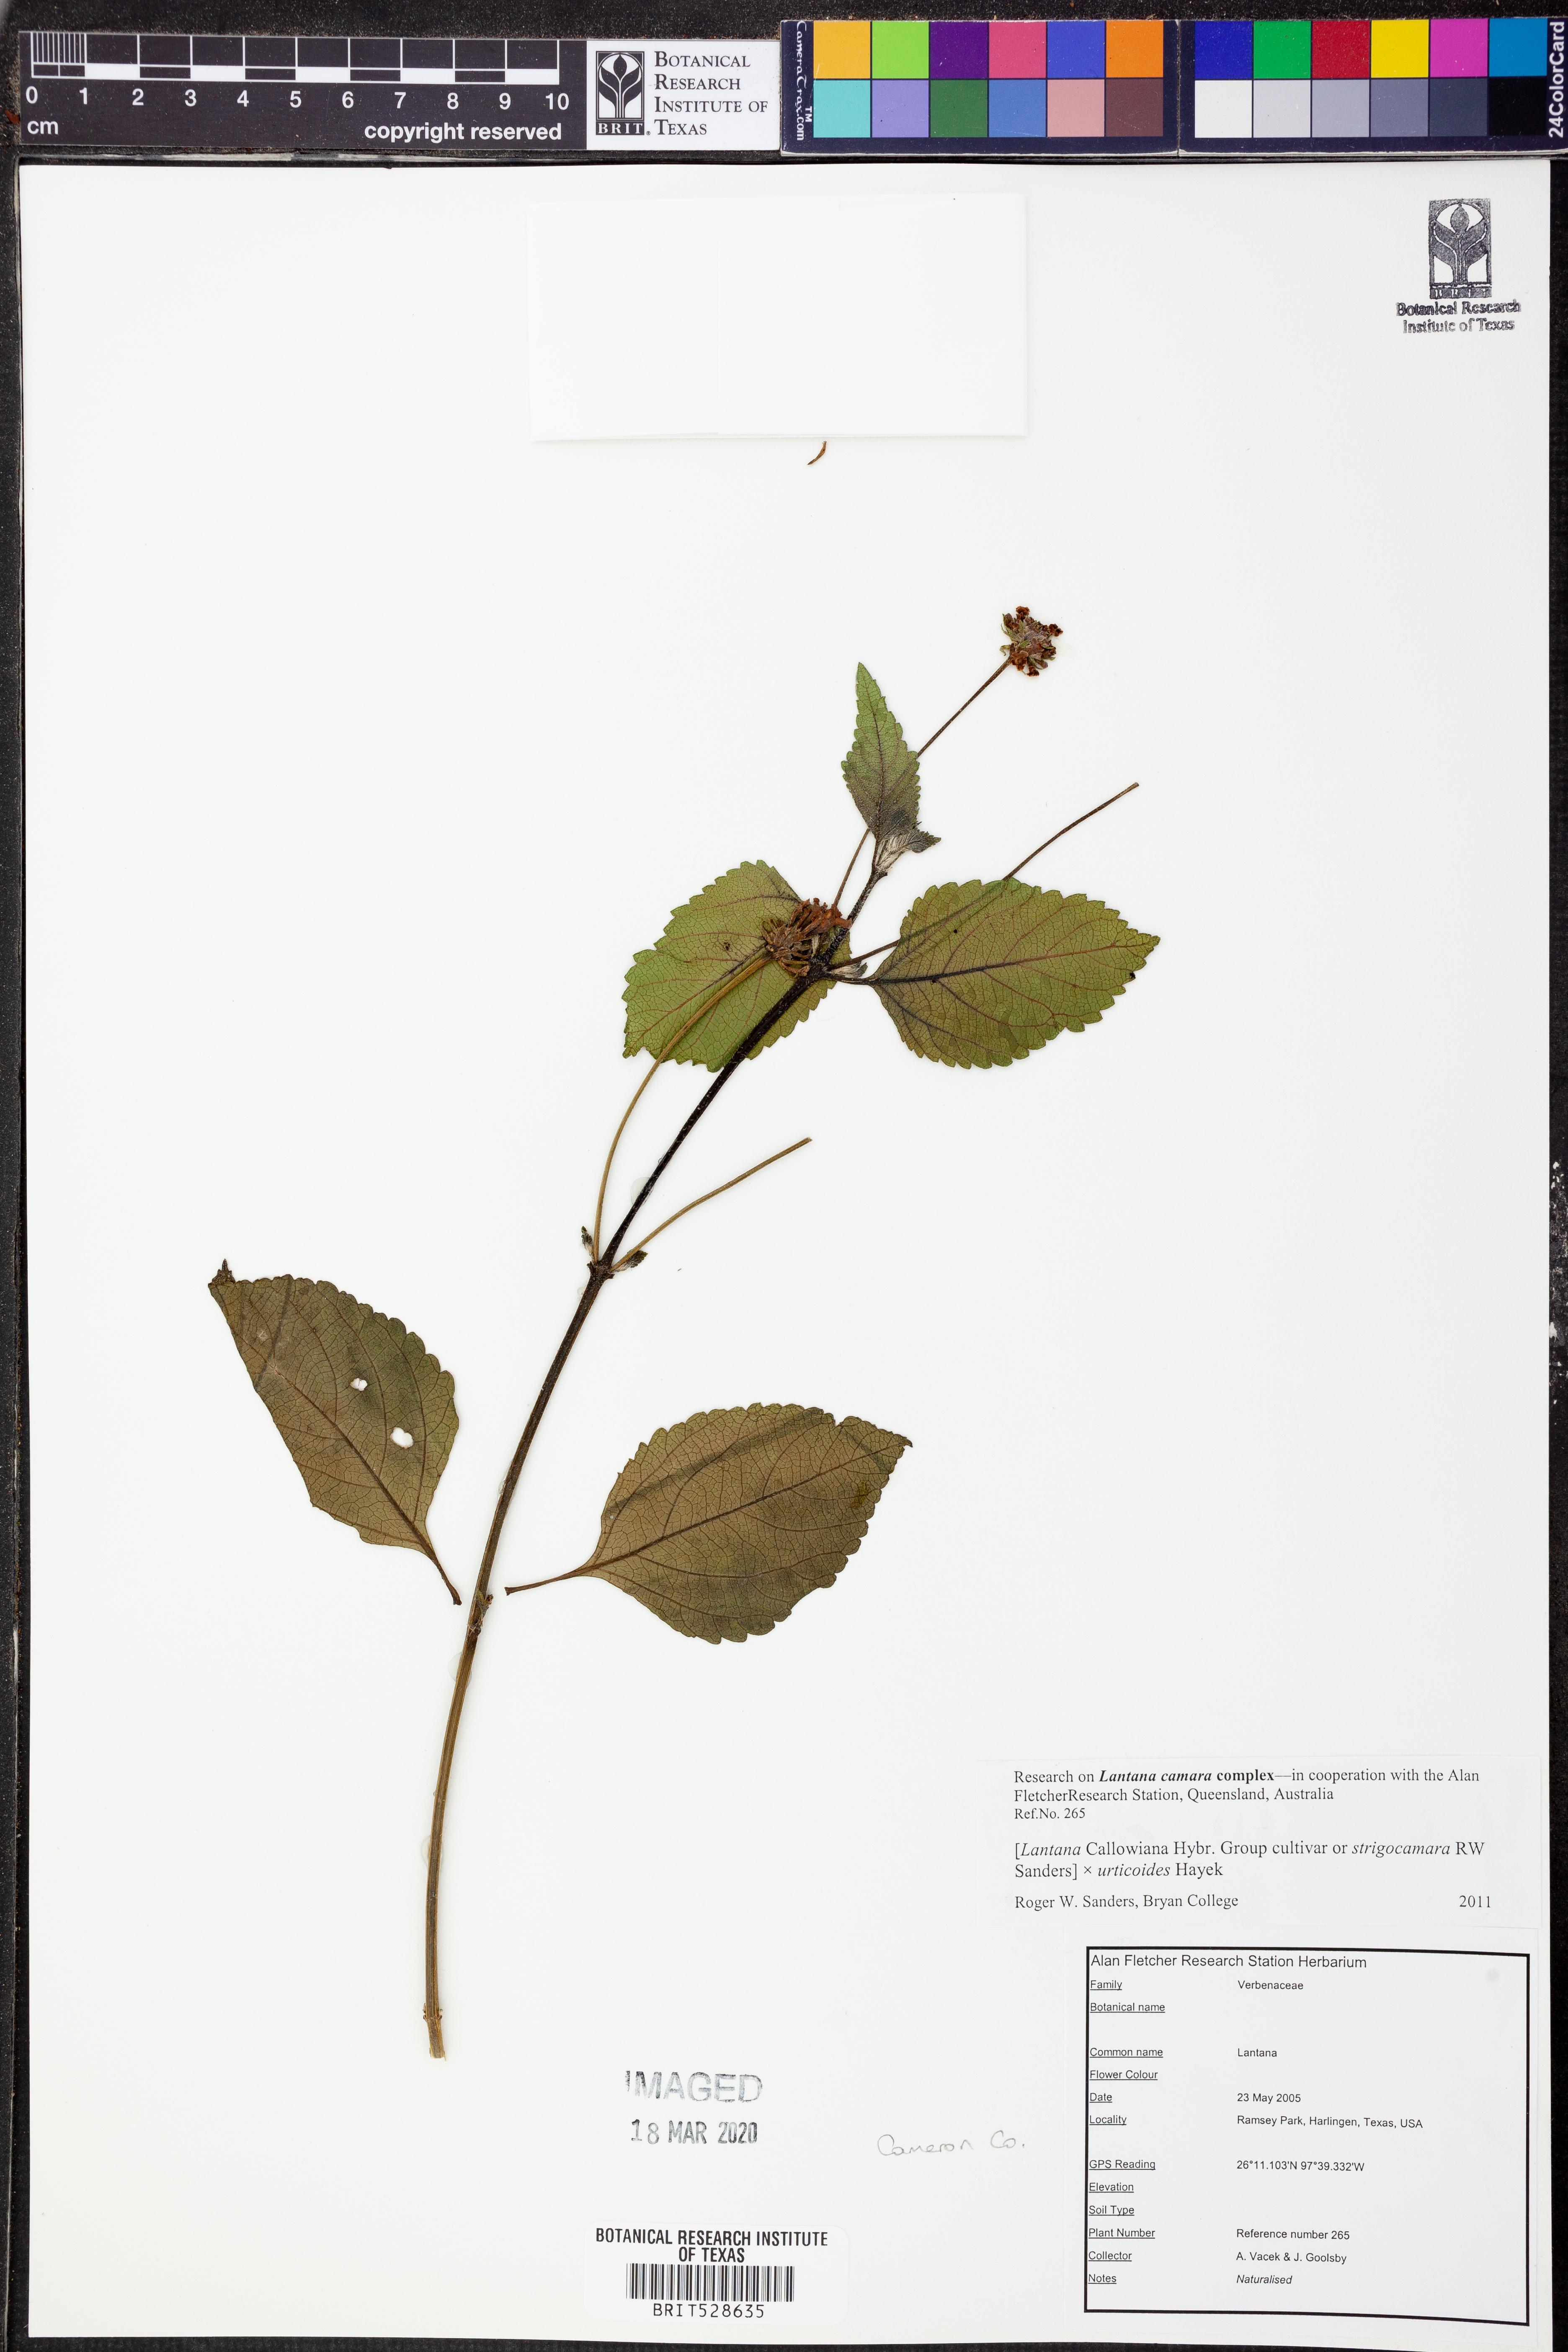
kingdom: Plantae
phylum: Tracheophyta
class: Magnoliopsida
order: Lamiales
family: Verbenaceae
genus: Lantana
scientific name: Lantana strigocamara
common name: Lantana
